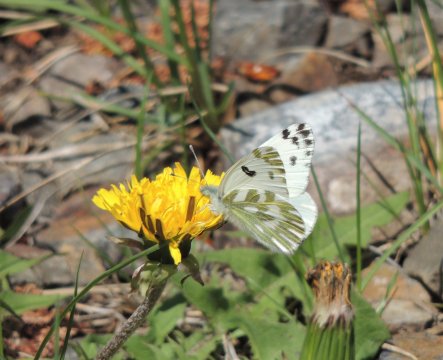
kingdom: Animalia
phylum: Arthropoda
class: Insecta
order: Lepidoptera
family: Pieridae
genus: Pontia
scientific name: Pontia beckerii
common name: Becker's White
